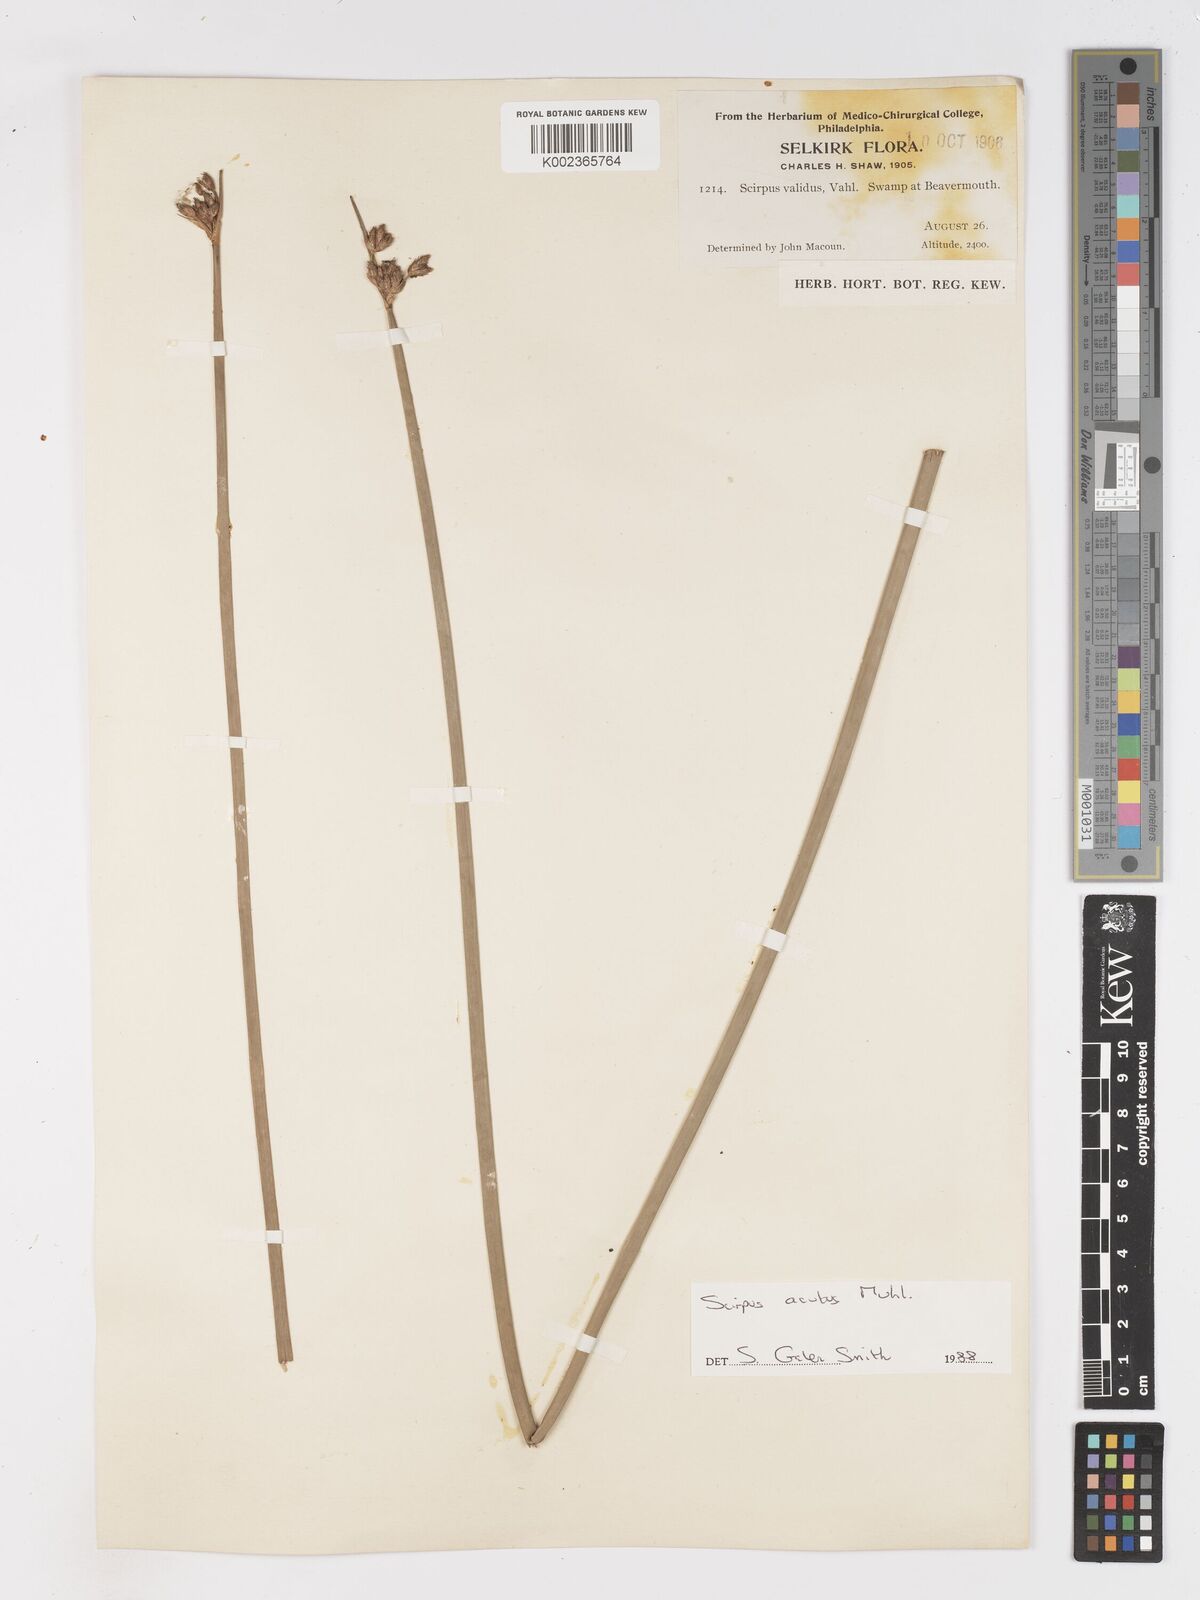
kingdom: Plantae
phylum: Tracheophyta
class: Liliopsida
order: Poales
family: Cyperaceae
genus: Schoenoplectus
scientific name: Schoenoplectus tabernaemontani
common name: Grey club-rush
